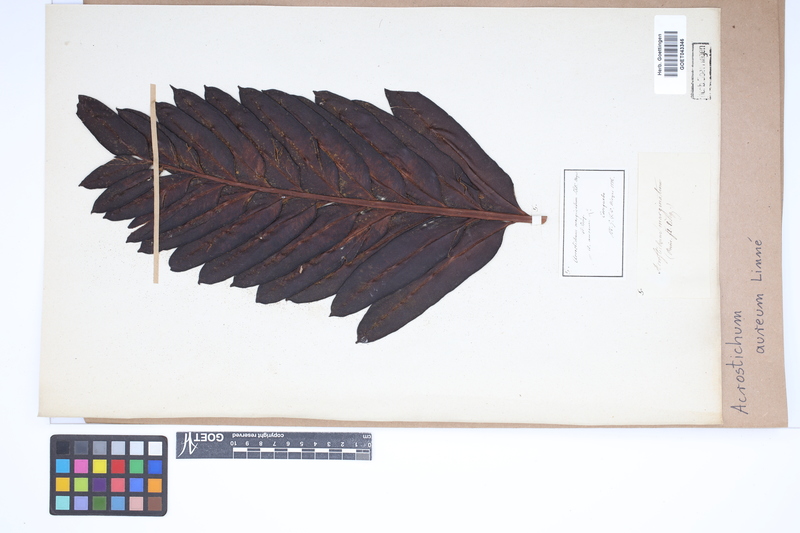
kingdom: Plantae
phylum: Tracheophyta
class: Polypodiopsida
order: Polypodiales
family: Pteridaceae
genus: Acrostichum
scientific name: Acrostichum aureum
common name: Leather fern
